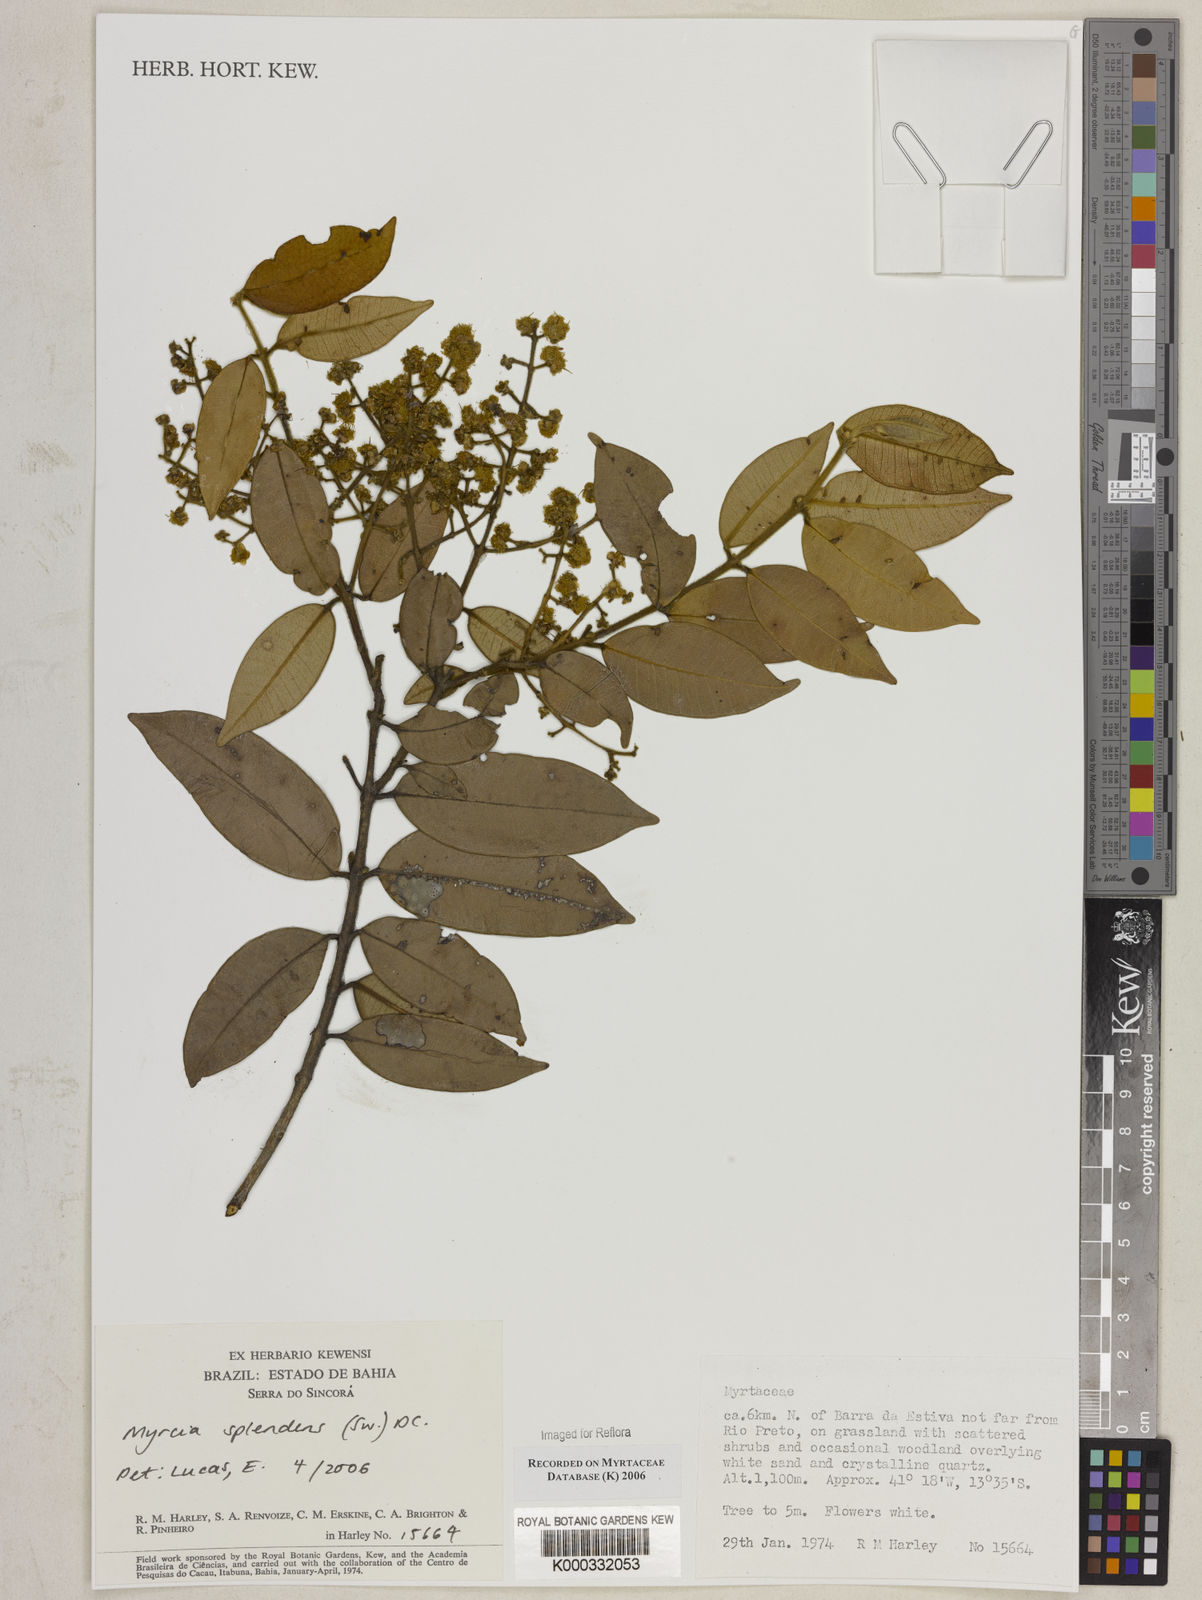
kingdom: Plantae
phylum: Tracheophyta
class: Magnoliopsida
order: Myrtales
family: Myrtaceae
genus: Myrcia
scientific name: Myrcia splendens
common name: Surinam cherry
